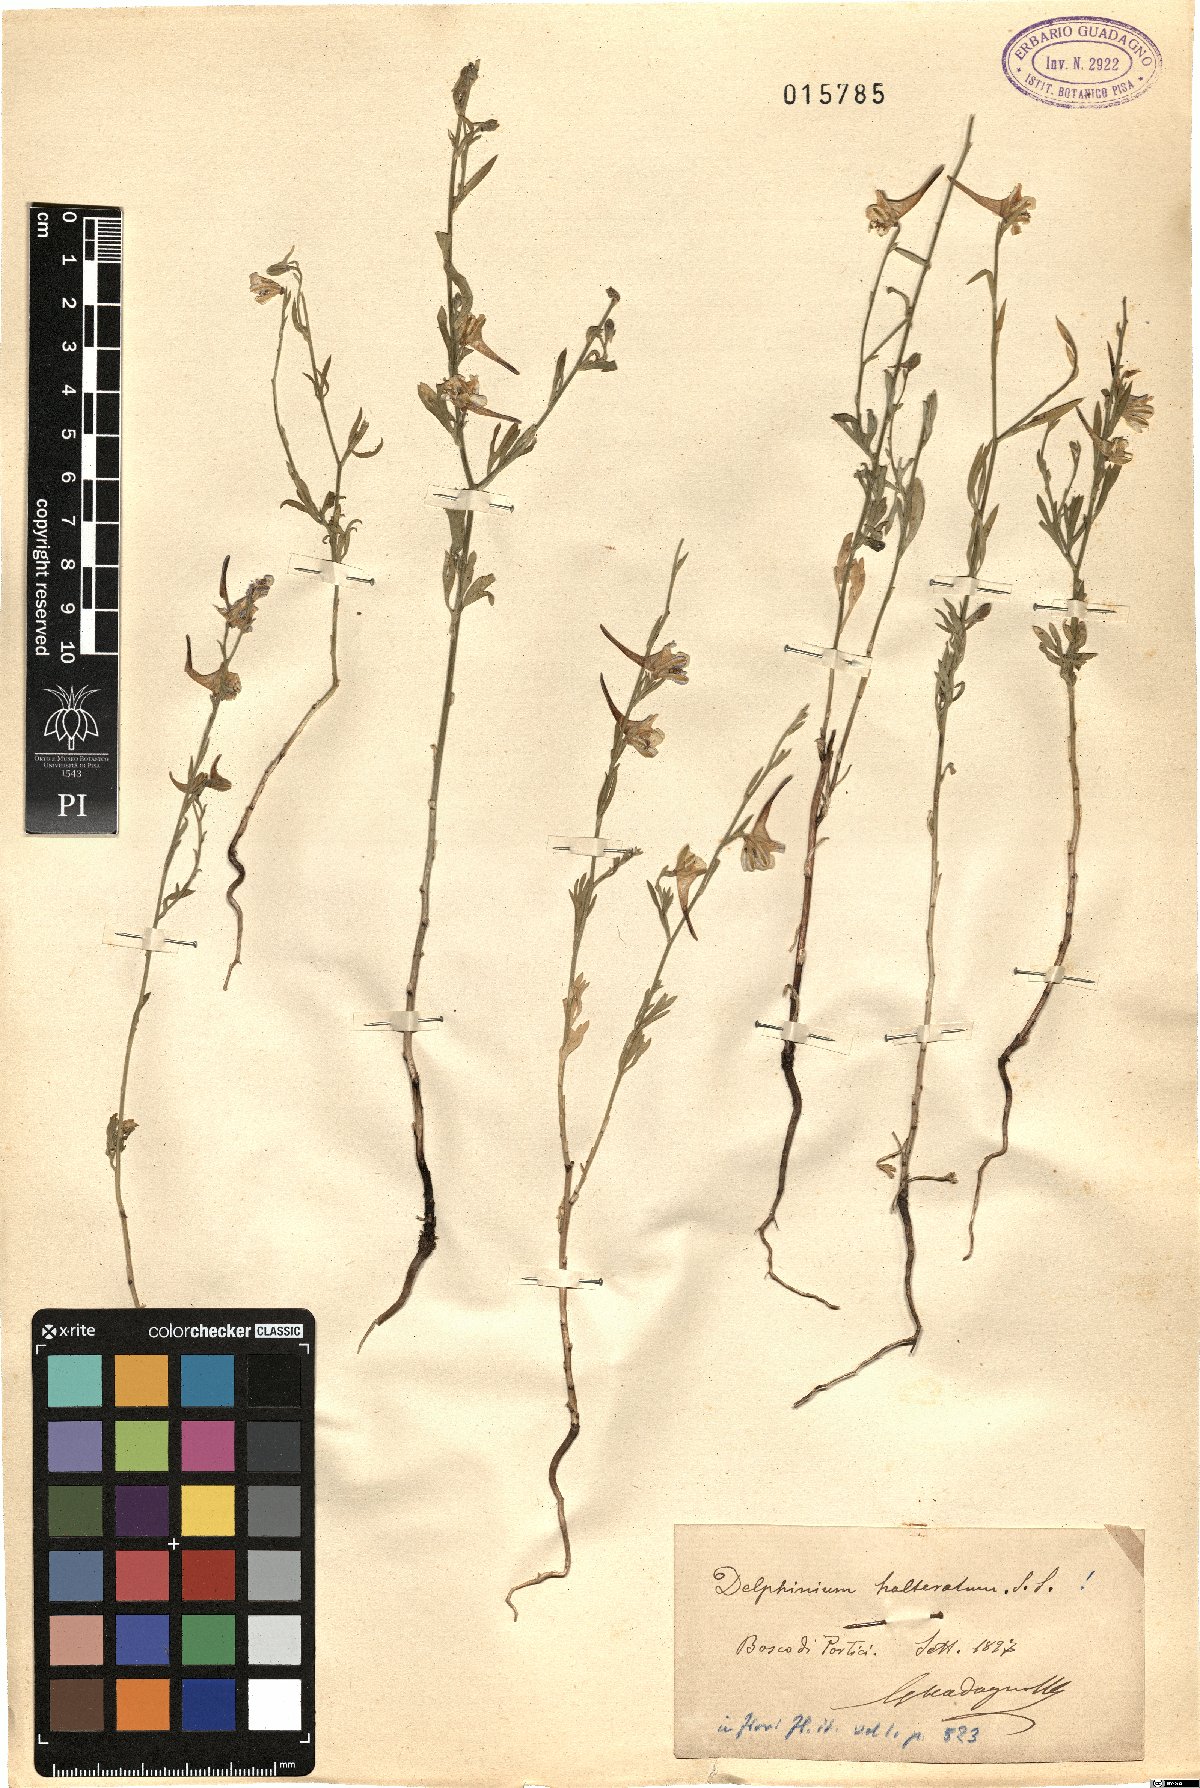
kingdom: Plantae
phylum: Tracheophyta
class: Magnoliopsida
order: Ranunculales
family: Ranunculaceae
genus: Delphinium
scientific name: Delphinium halteratum
